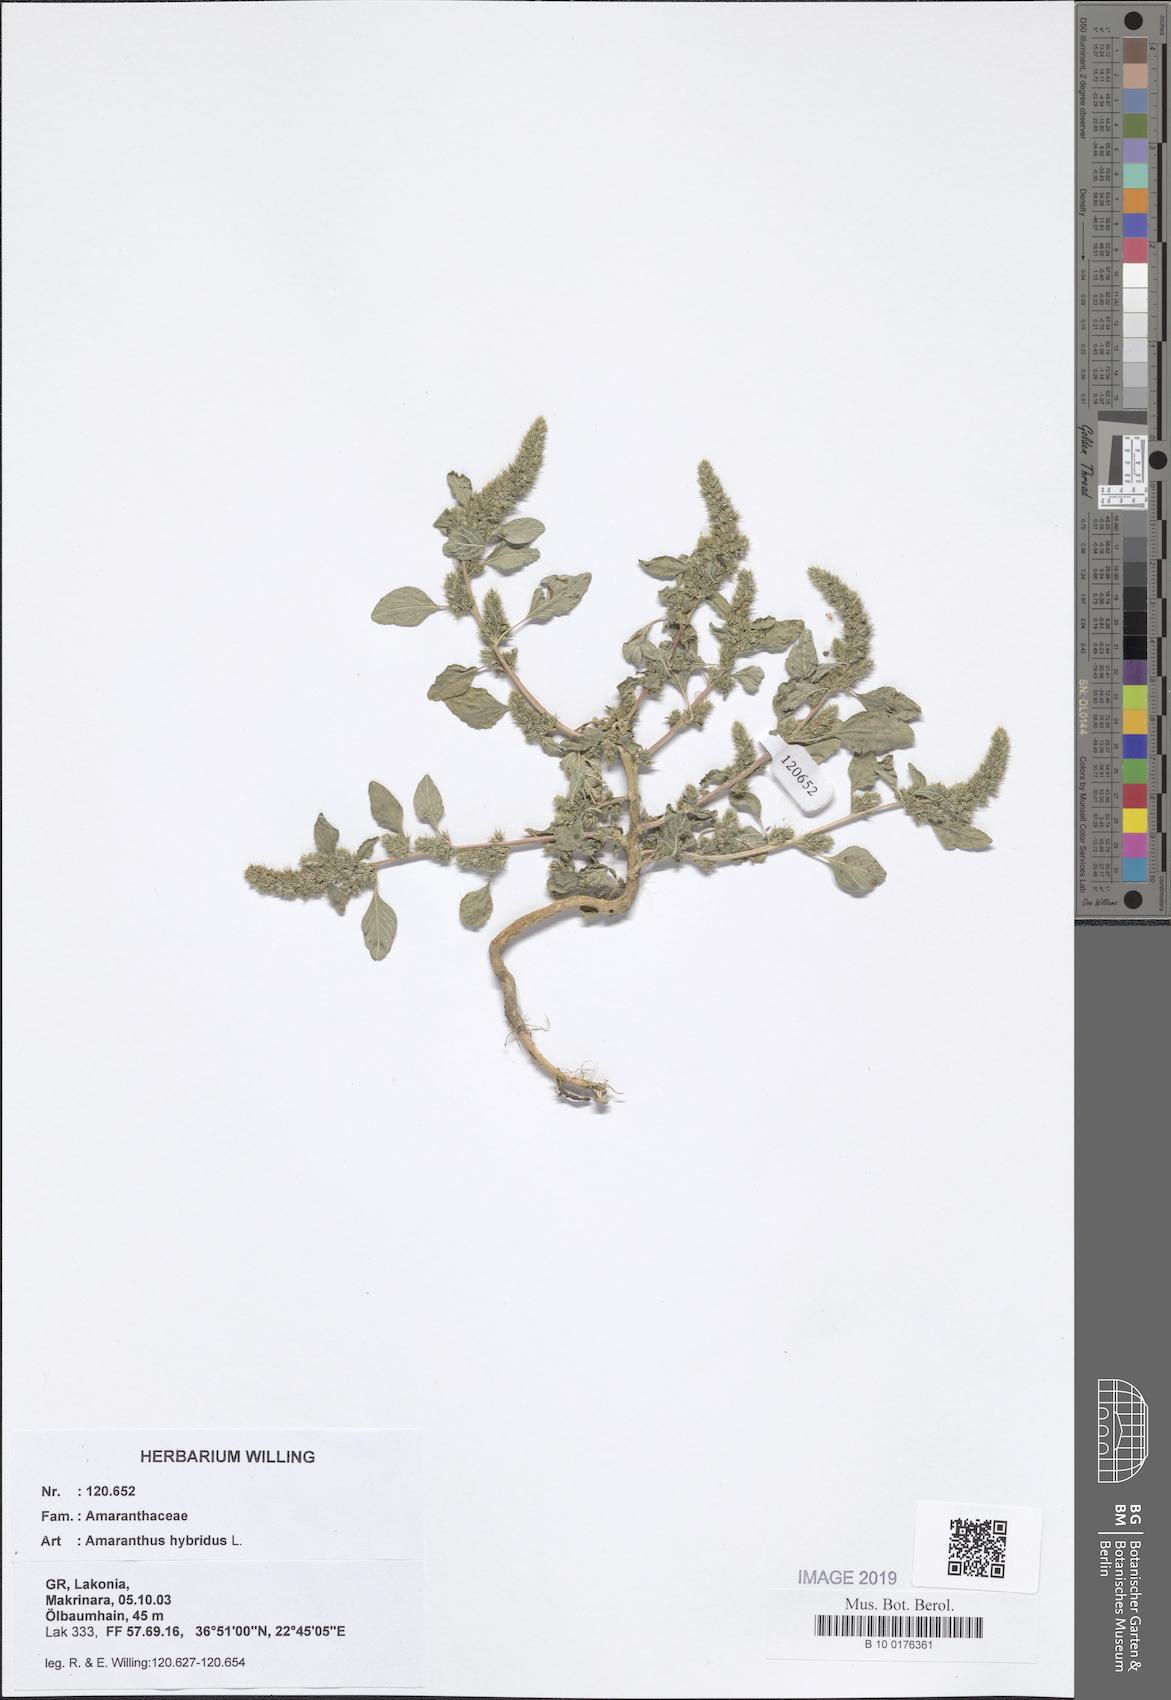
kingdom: Plantae
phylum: Tracheophyta
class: Magnoliopsida
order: Caryophyllales
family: Amaranthaceae
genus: Amaranthus
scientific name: Amaranthus hybridus
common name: Green amaranth
